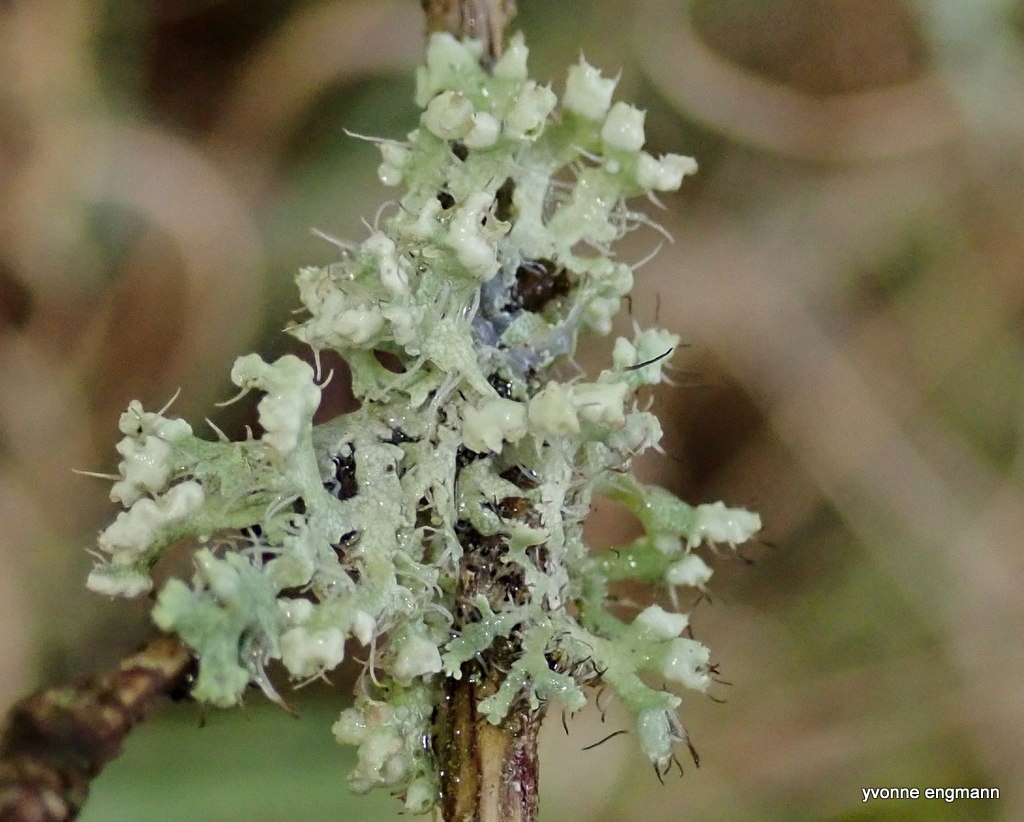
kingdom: Fungi
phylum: Ascomycota
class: Lecanoromycetes
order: Caliciales
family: Physciaceae
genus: Physcia
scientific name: Physcia adscendens
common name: hætte-rosetlav
